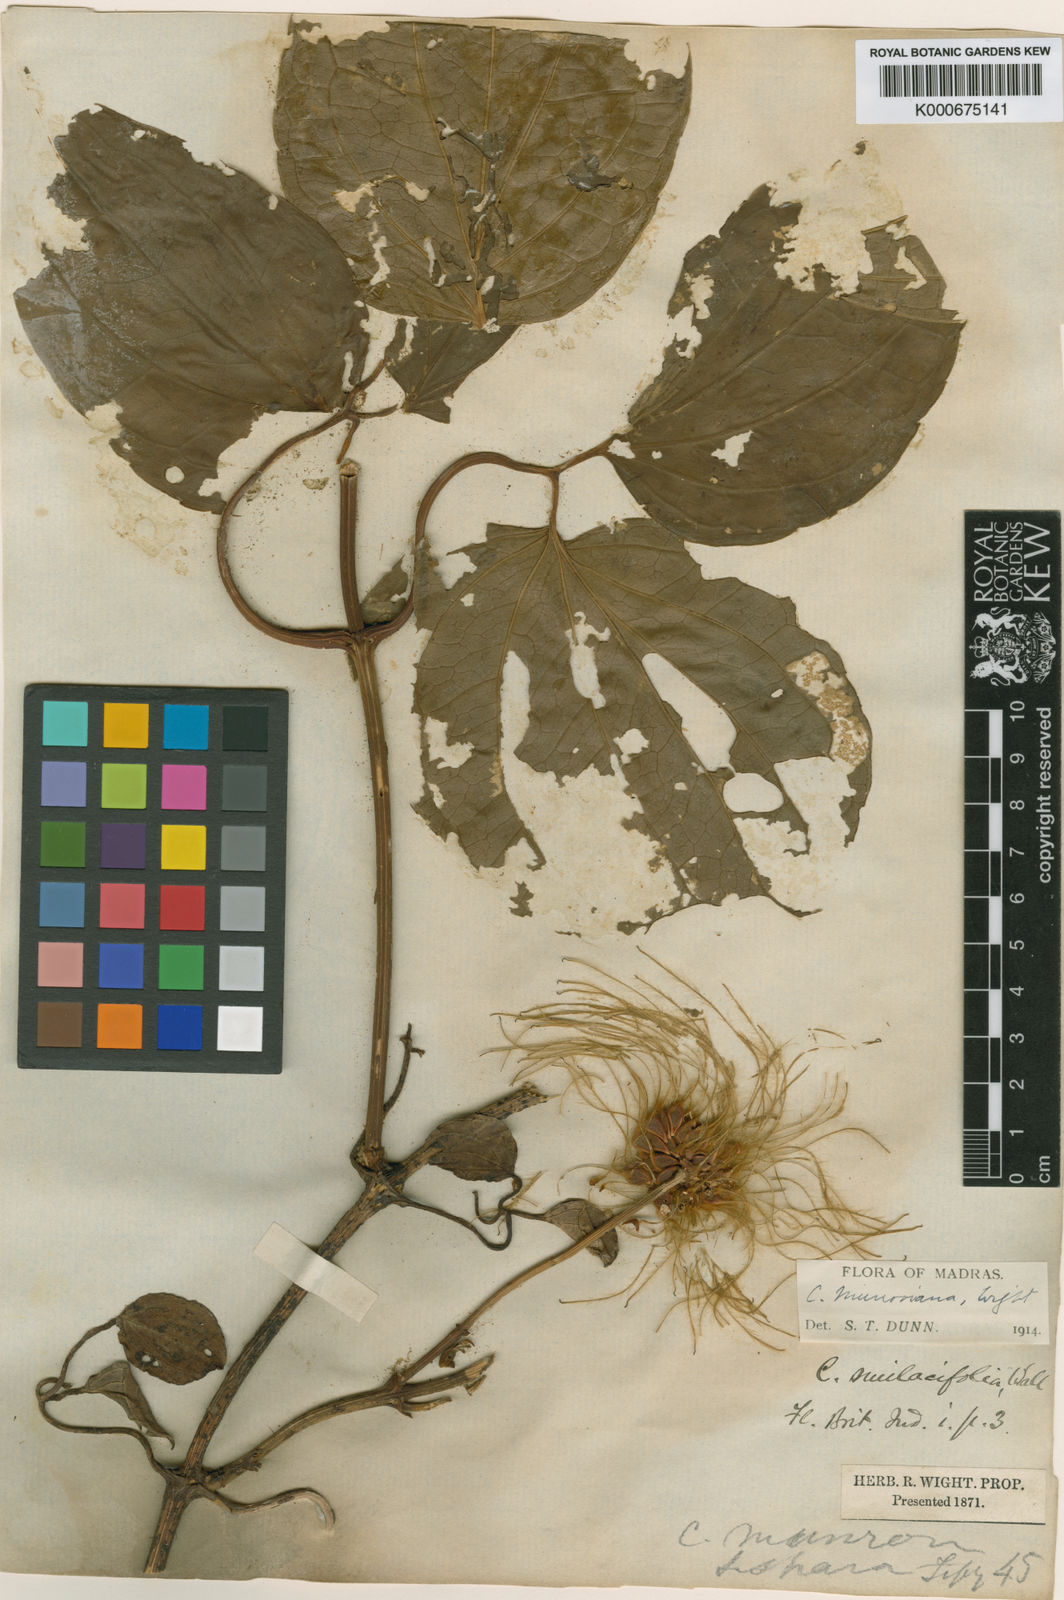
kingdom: Plantae
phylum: Tracheophyta
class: Magnoliopsida
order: Ranunculales
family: Ranunculaceae
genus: Clematis
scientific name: Clematis smilacifolia
